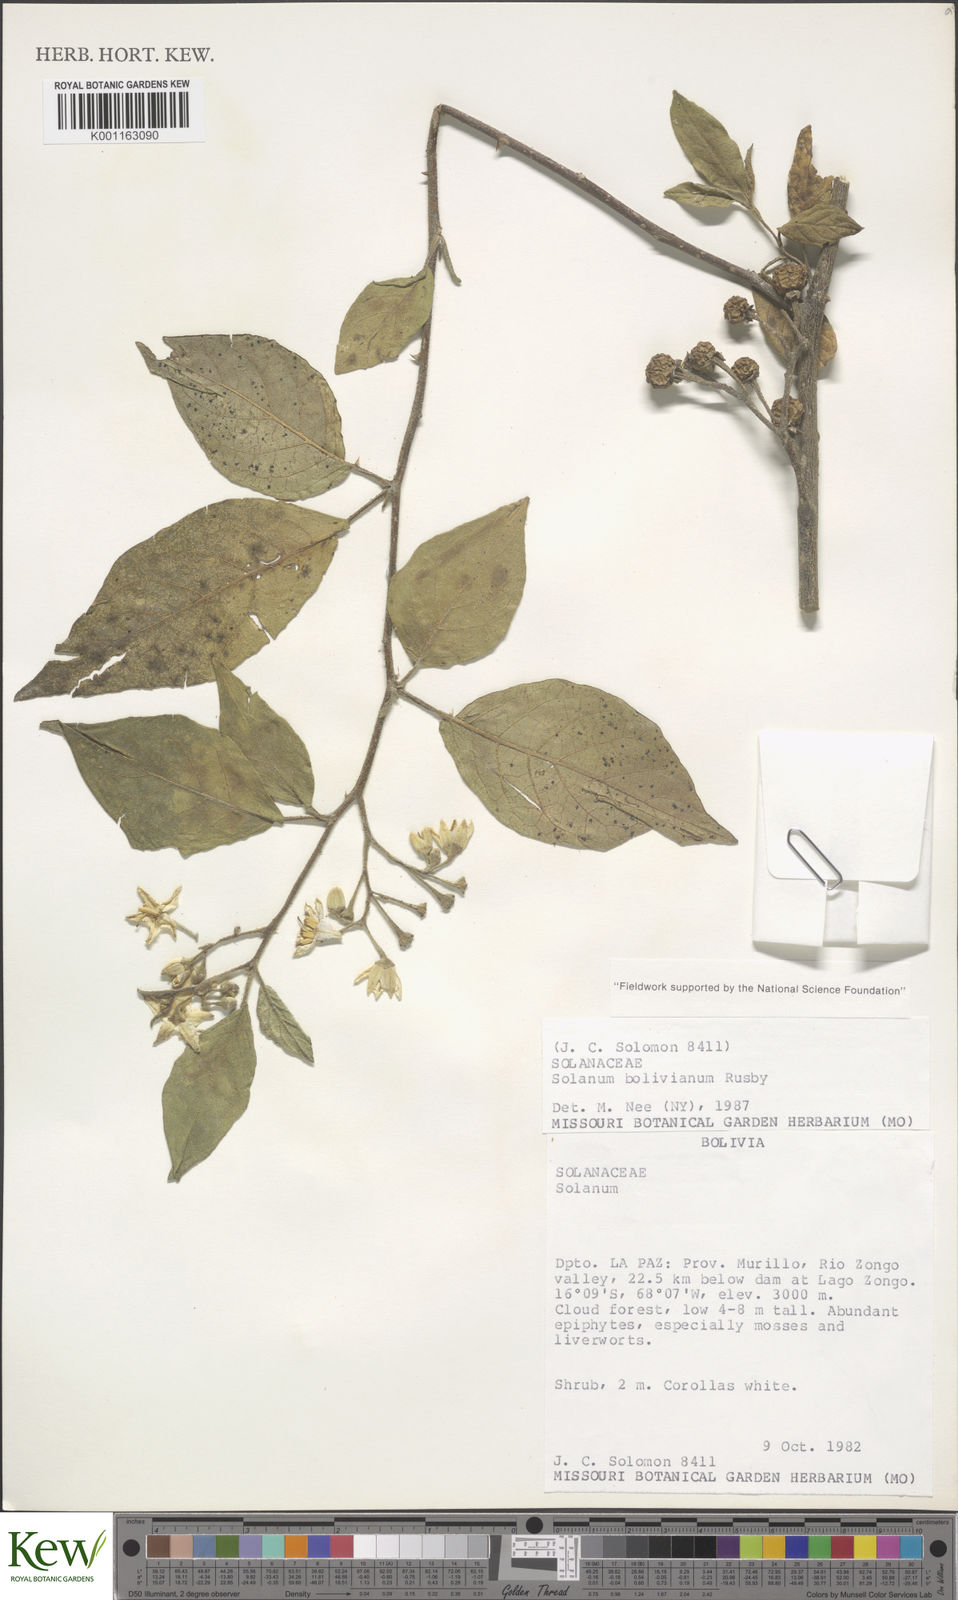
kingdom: Plantae
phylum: Tracheophyta
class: Magnoliopsida
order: Solanales
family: Solanaceae
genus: Solanum
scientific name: Solanum bolivianum
